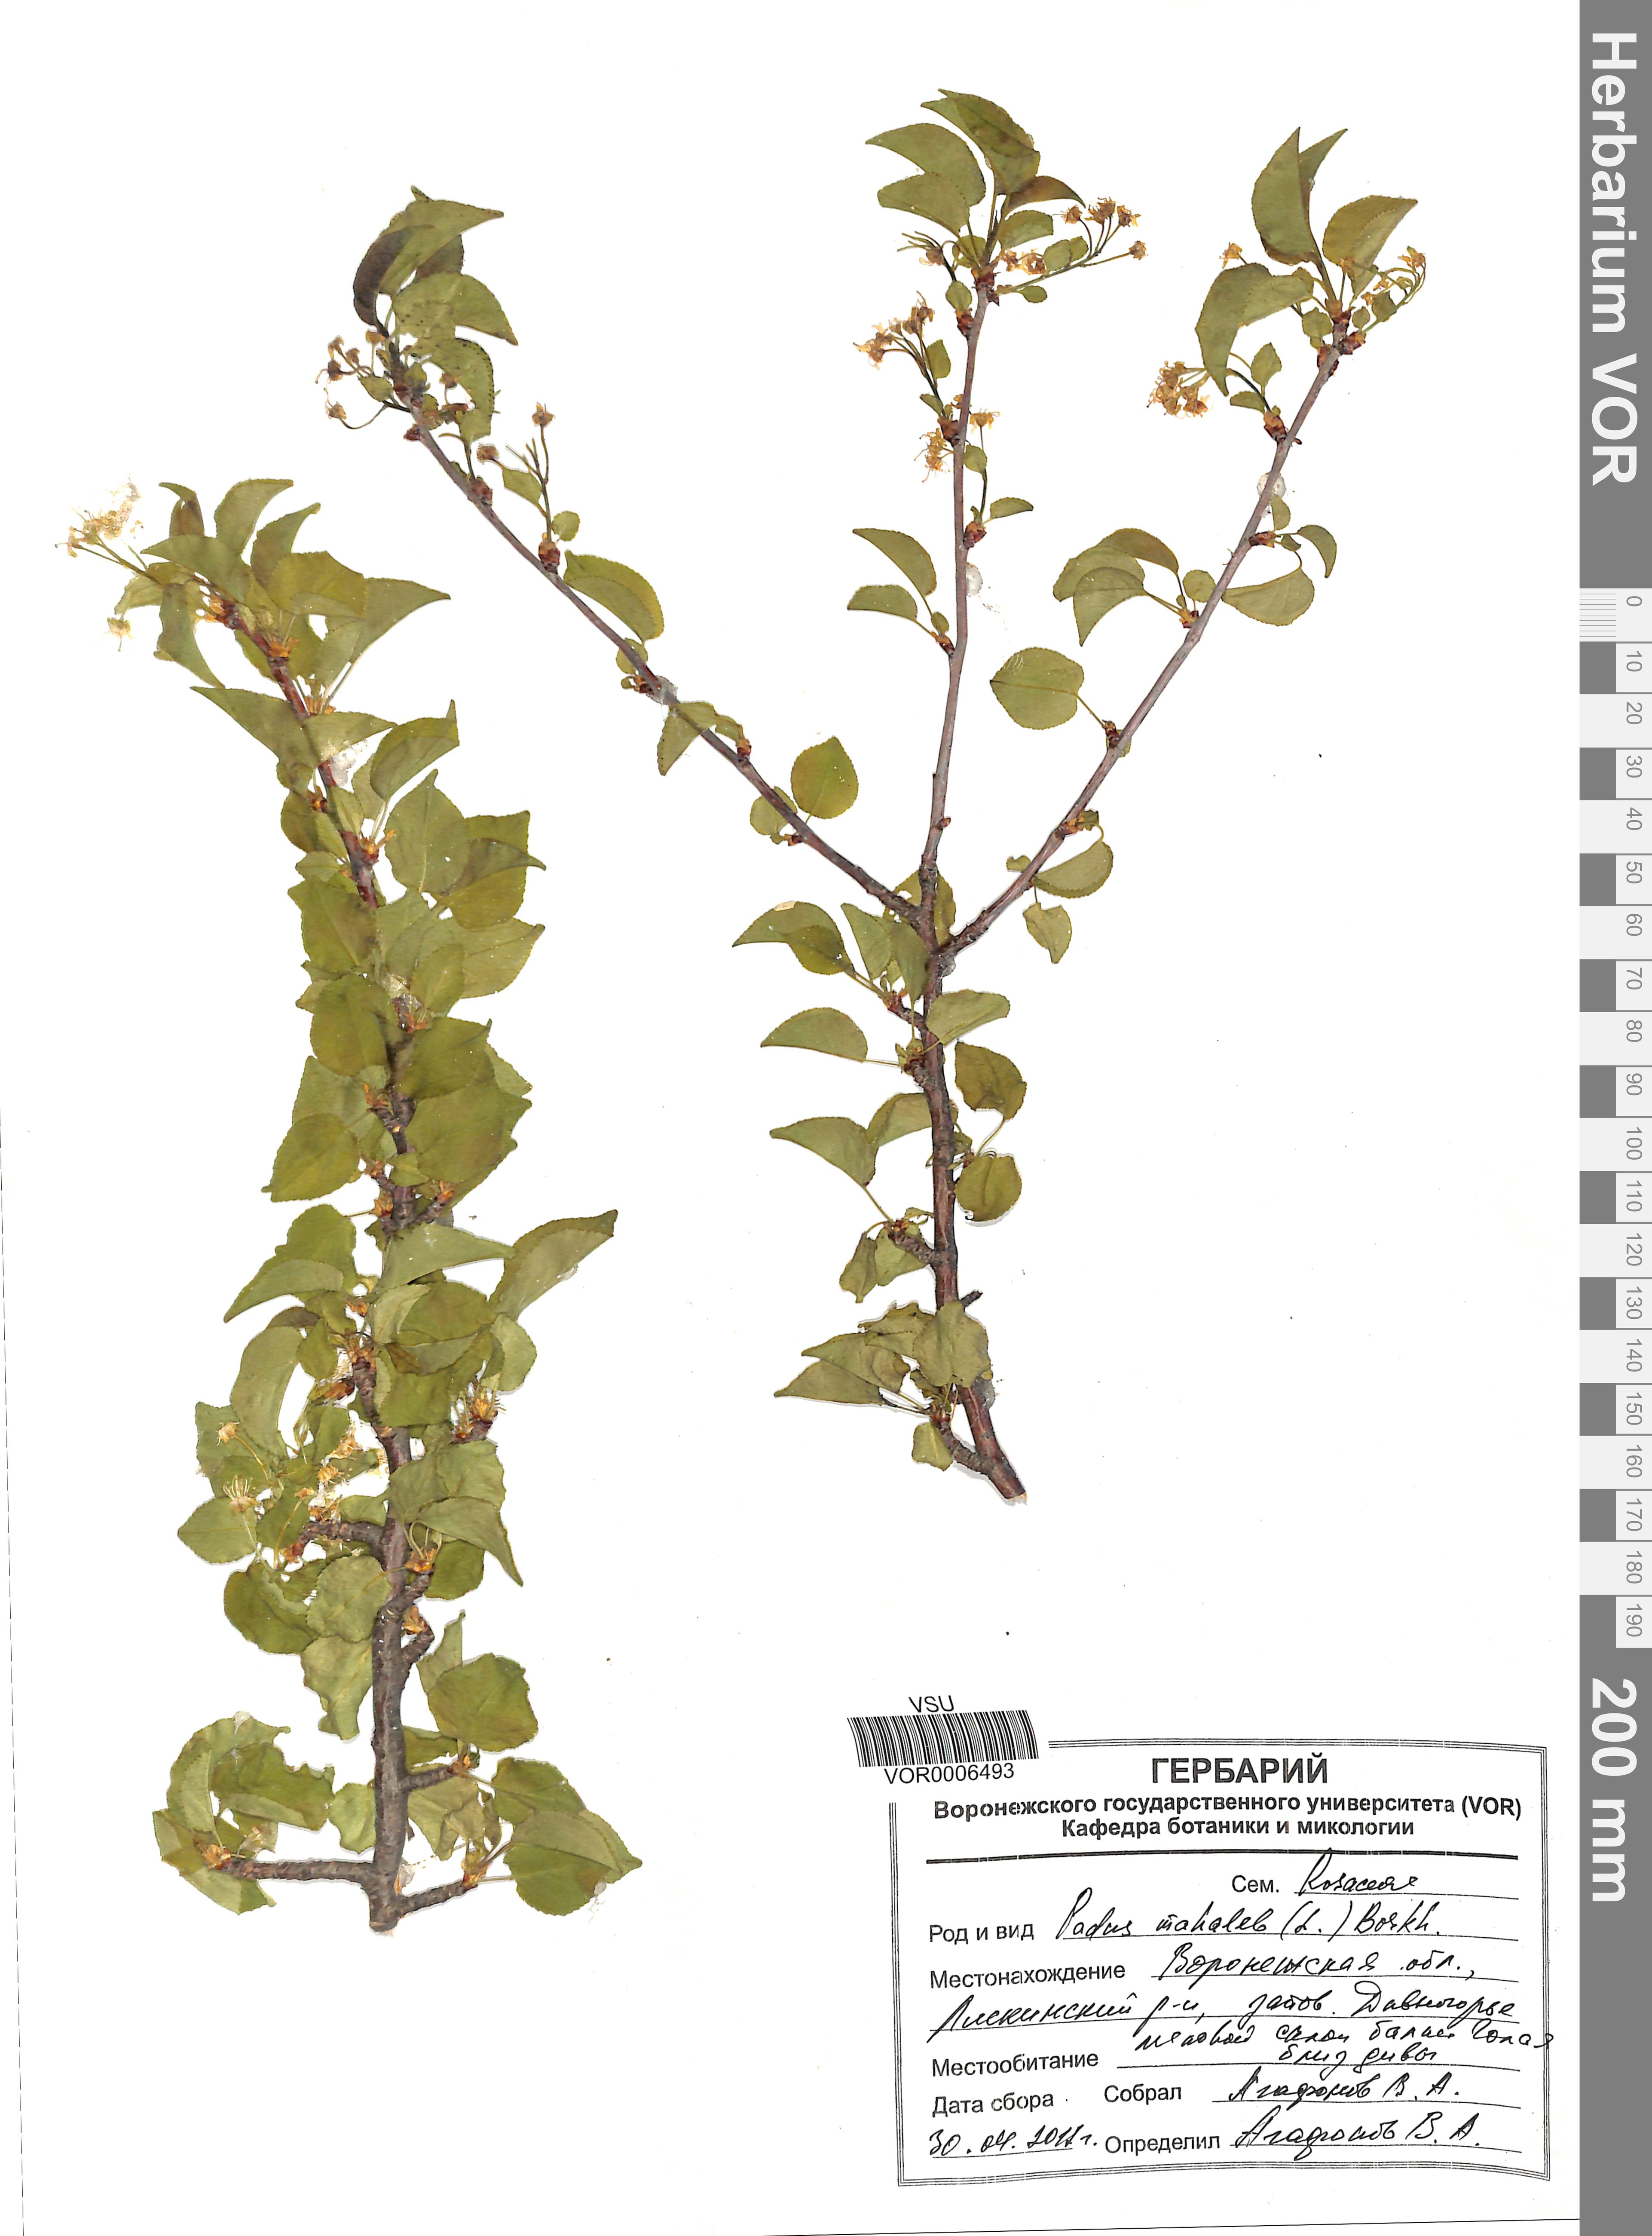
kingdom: Plantae
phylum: Tracheophyta
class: Magnoliopsida
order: Rosales
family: Rosaceae
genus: Prunus
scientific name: Prunus mahaleb
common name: Mahaleb cherry
